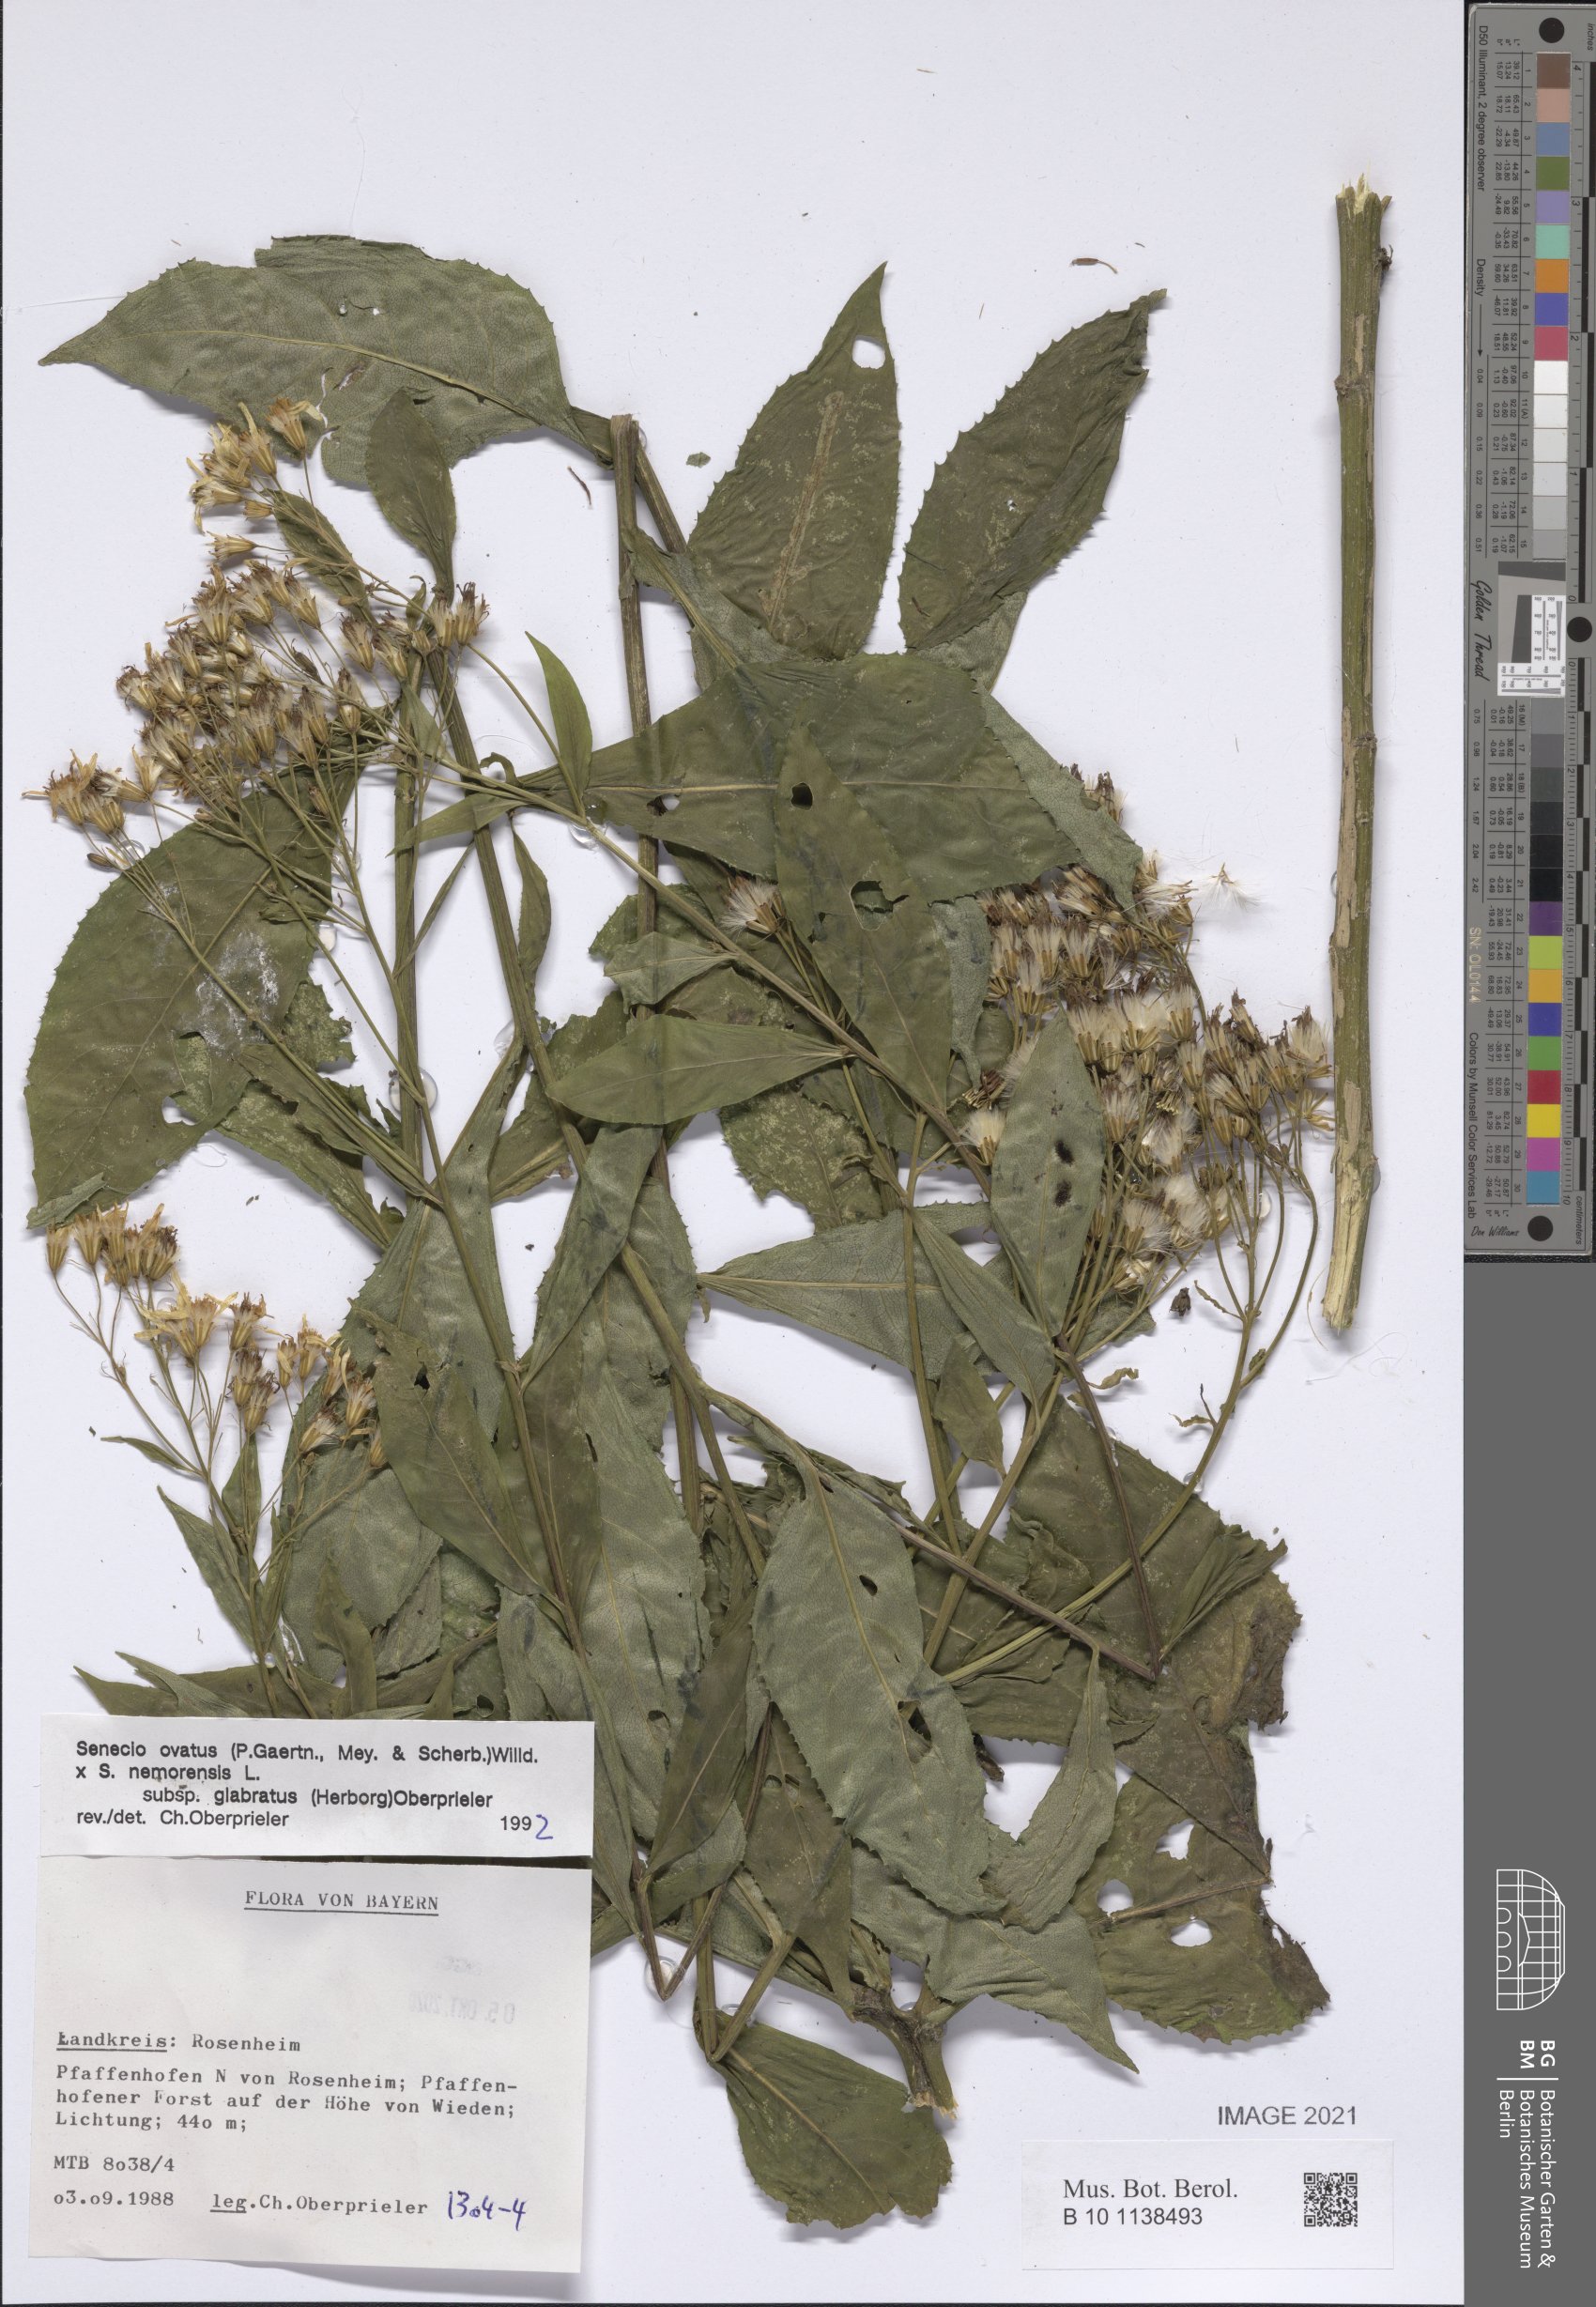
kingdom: Plantae
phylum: Tracheophyta
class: Magnoliopsida
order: Asterales
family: Asteraceae
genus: Senecio
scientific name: Senecio ovatus
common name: Wood ragwort
